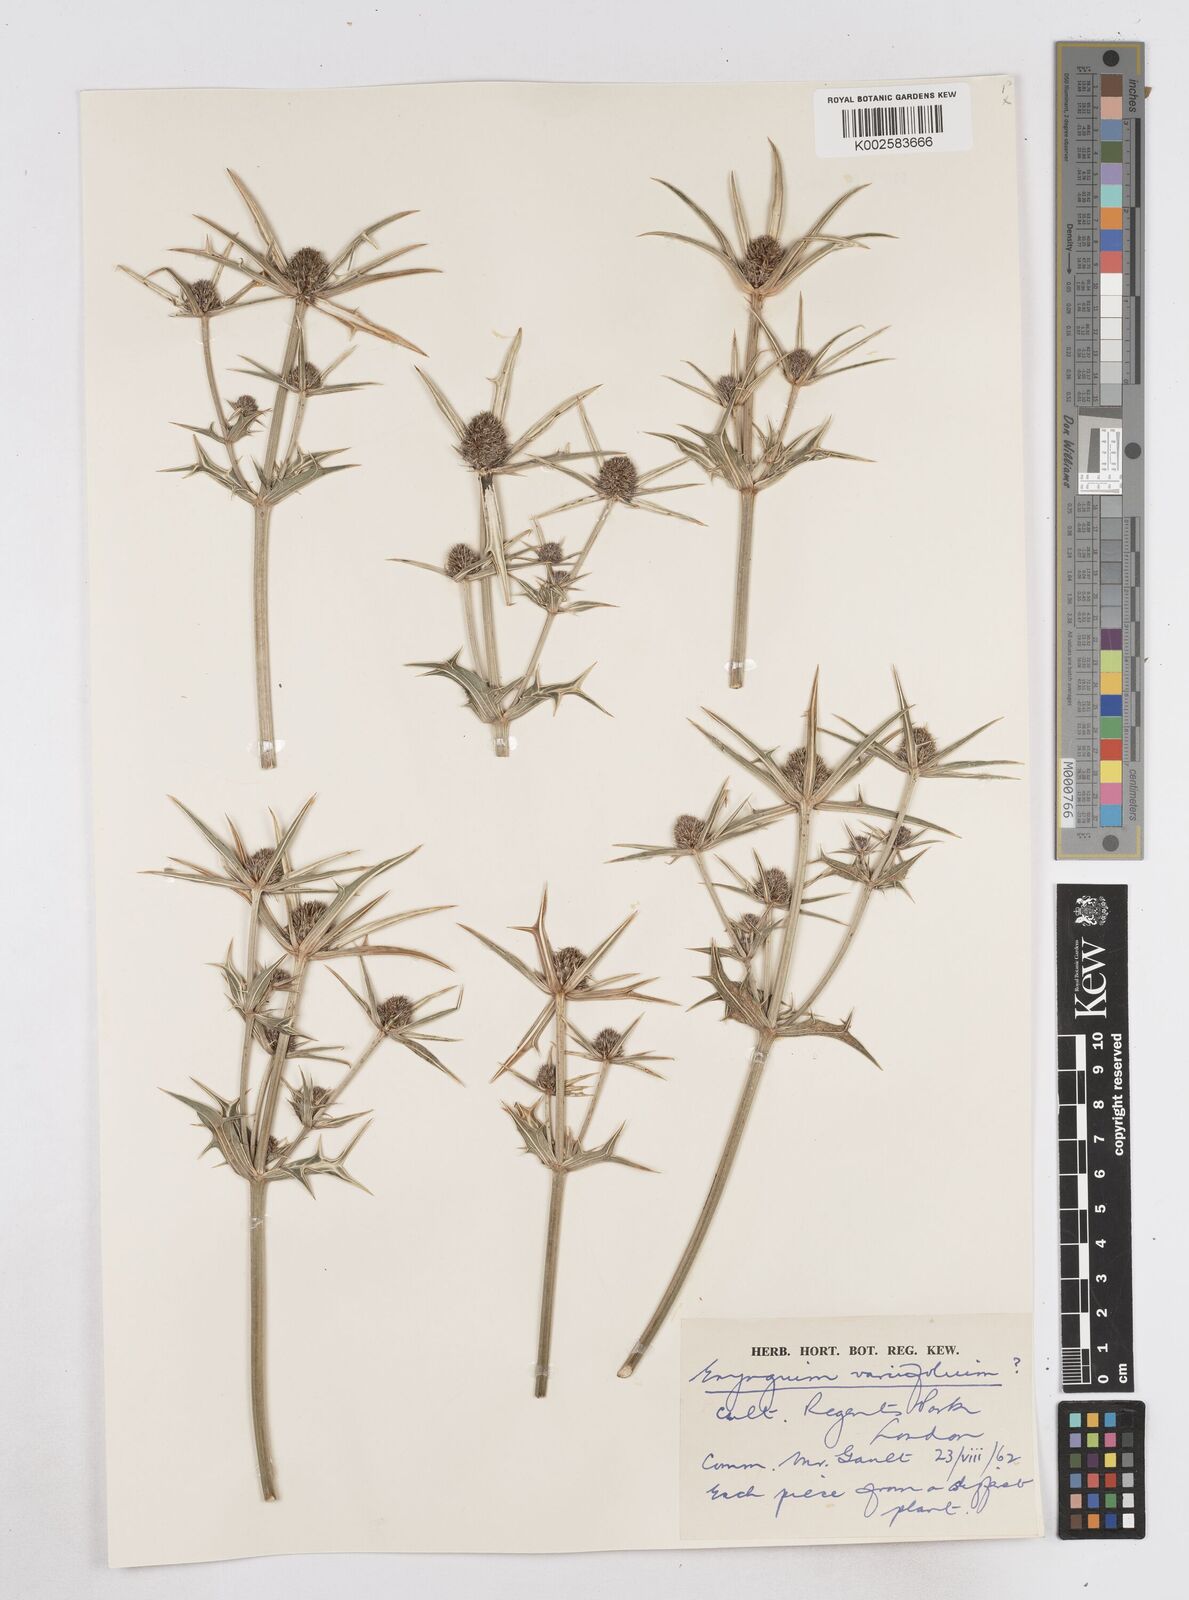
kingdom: Plantae
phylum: Tracheophyta
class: Magnoliopsida
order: Apiales
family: Apiaceae
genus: Eryngium
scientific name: Eryngium variifolium
